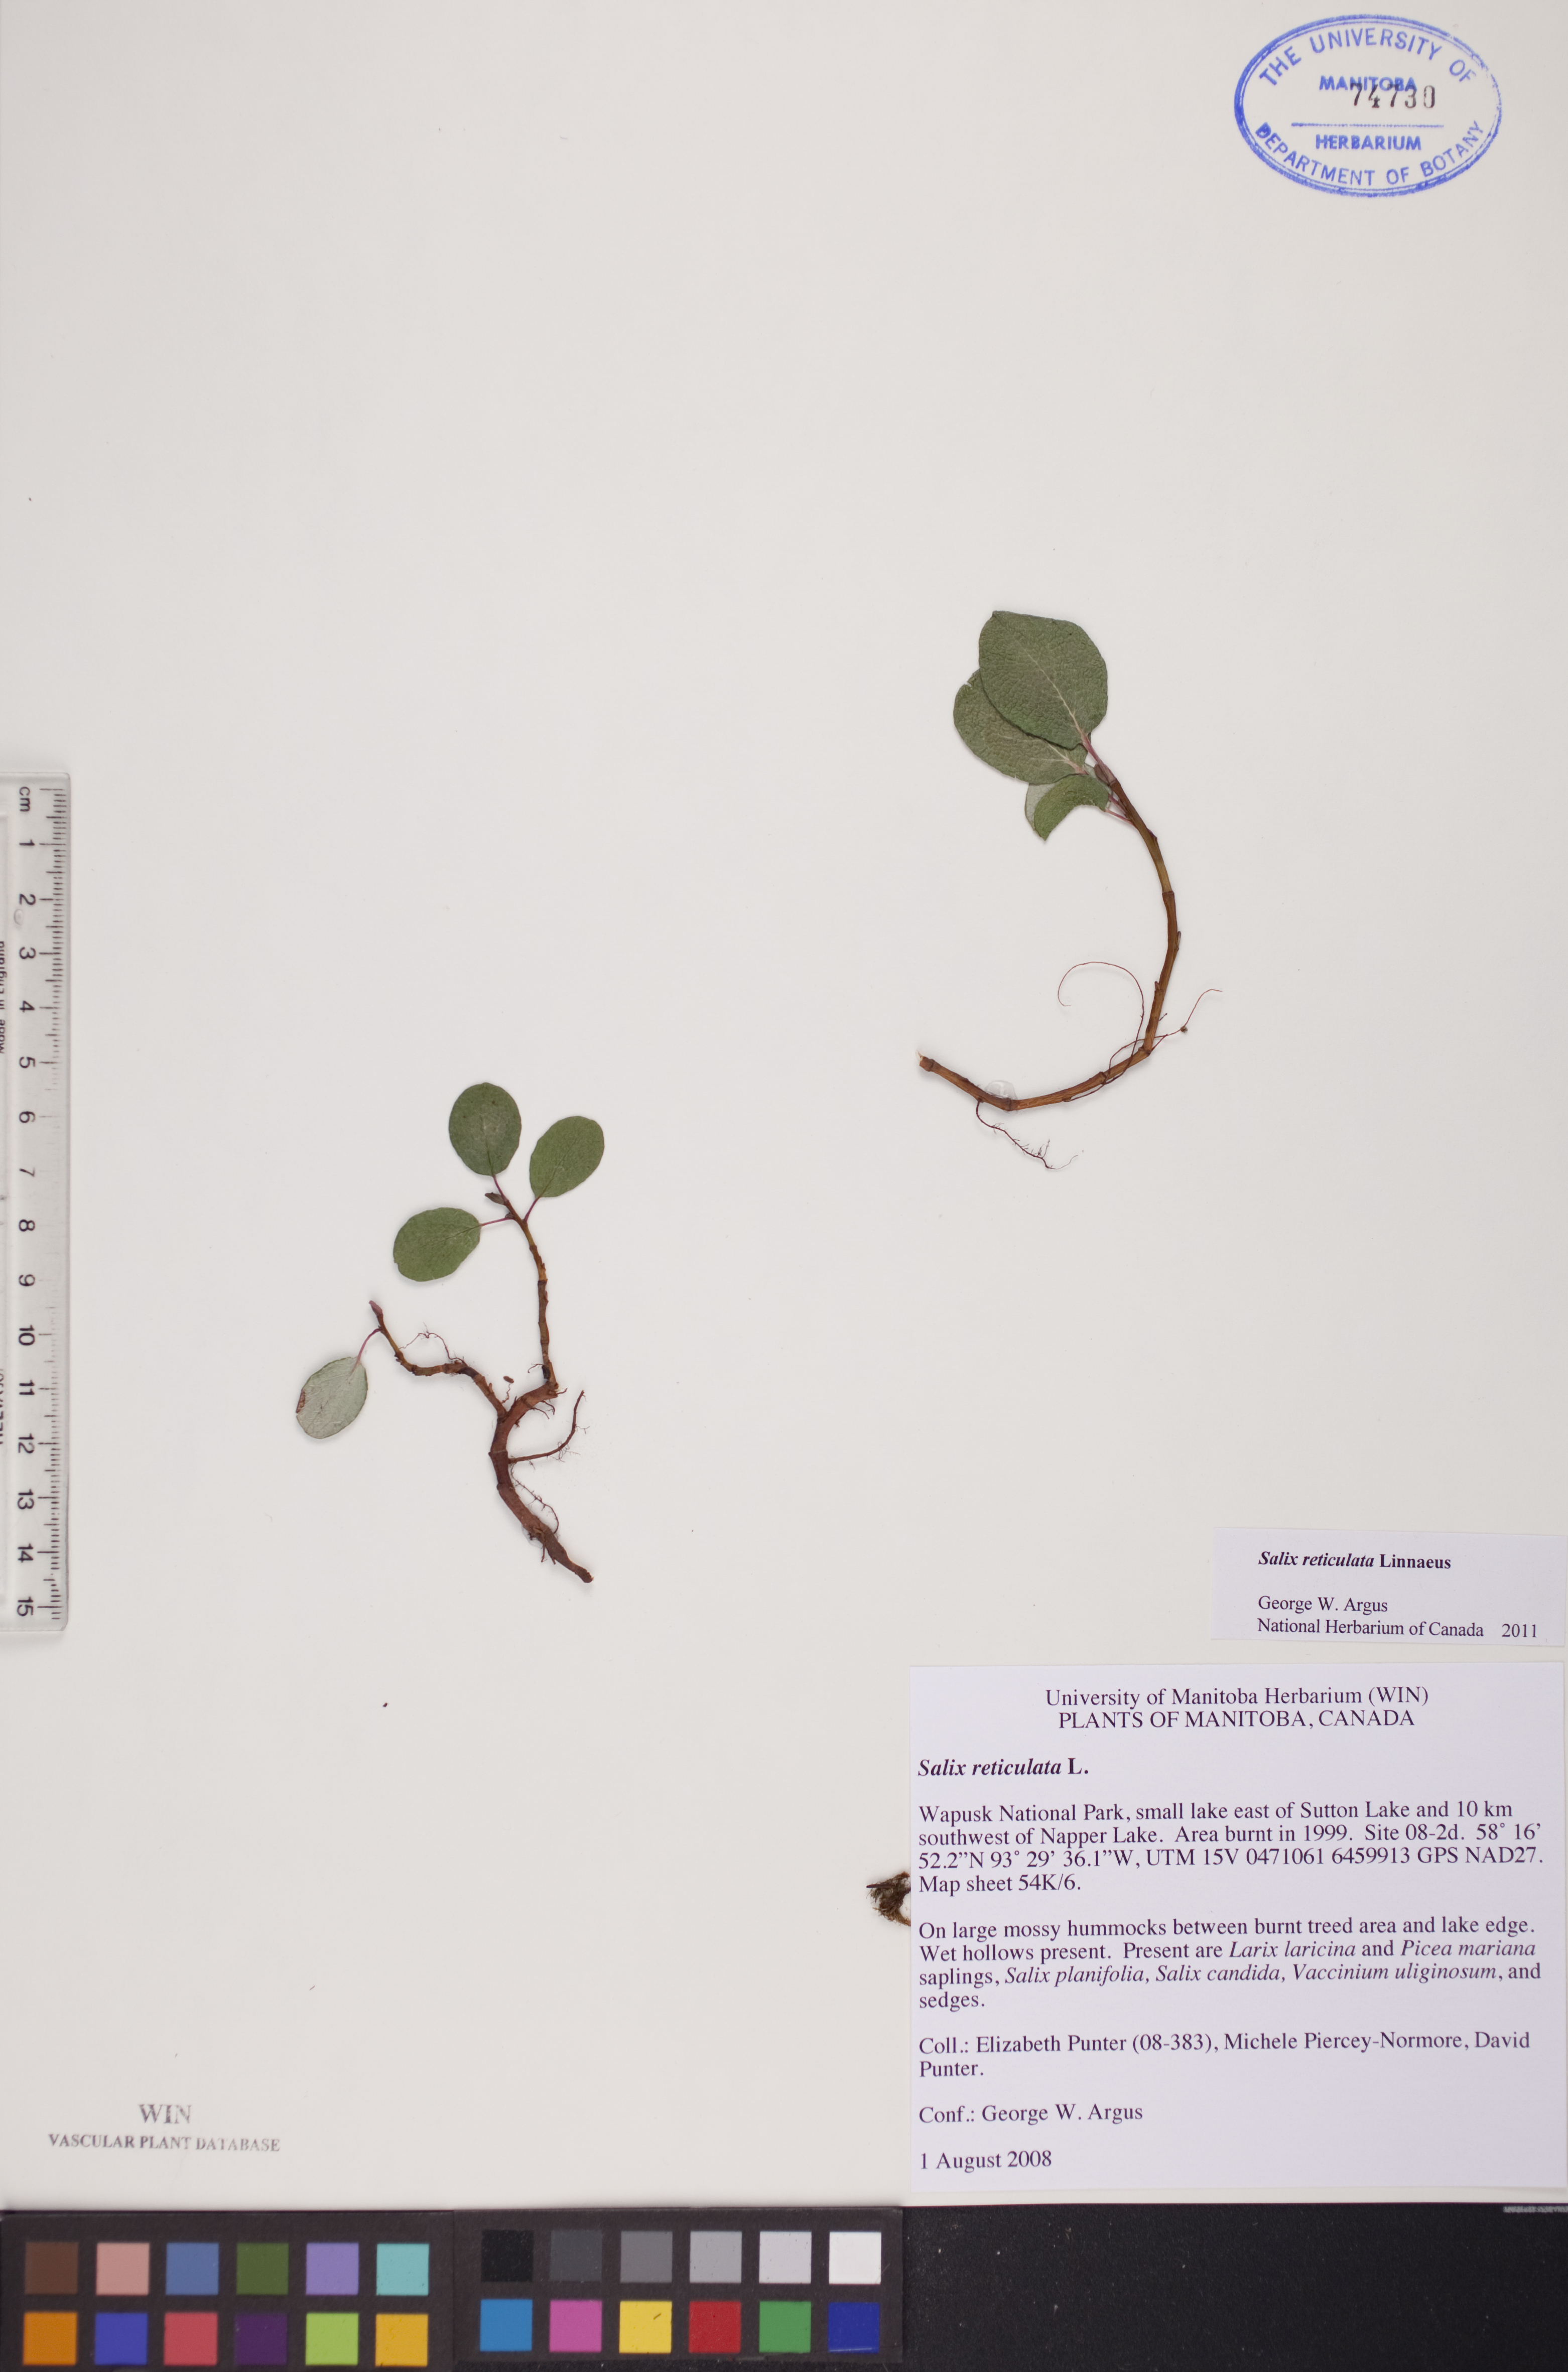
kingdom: Plantae
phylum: Tracheophyta
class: Magnoliopsida
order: Malpighiales
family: Salicaceae
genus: Salix
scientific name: Salix reticulata
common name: Net-leaved willow
